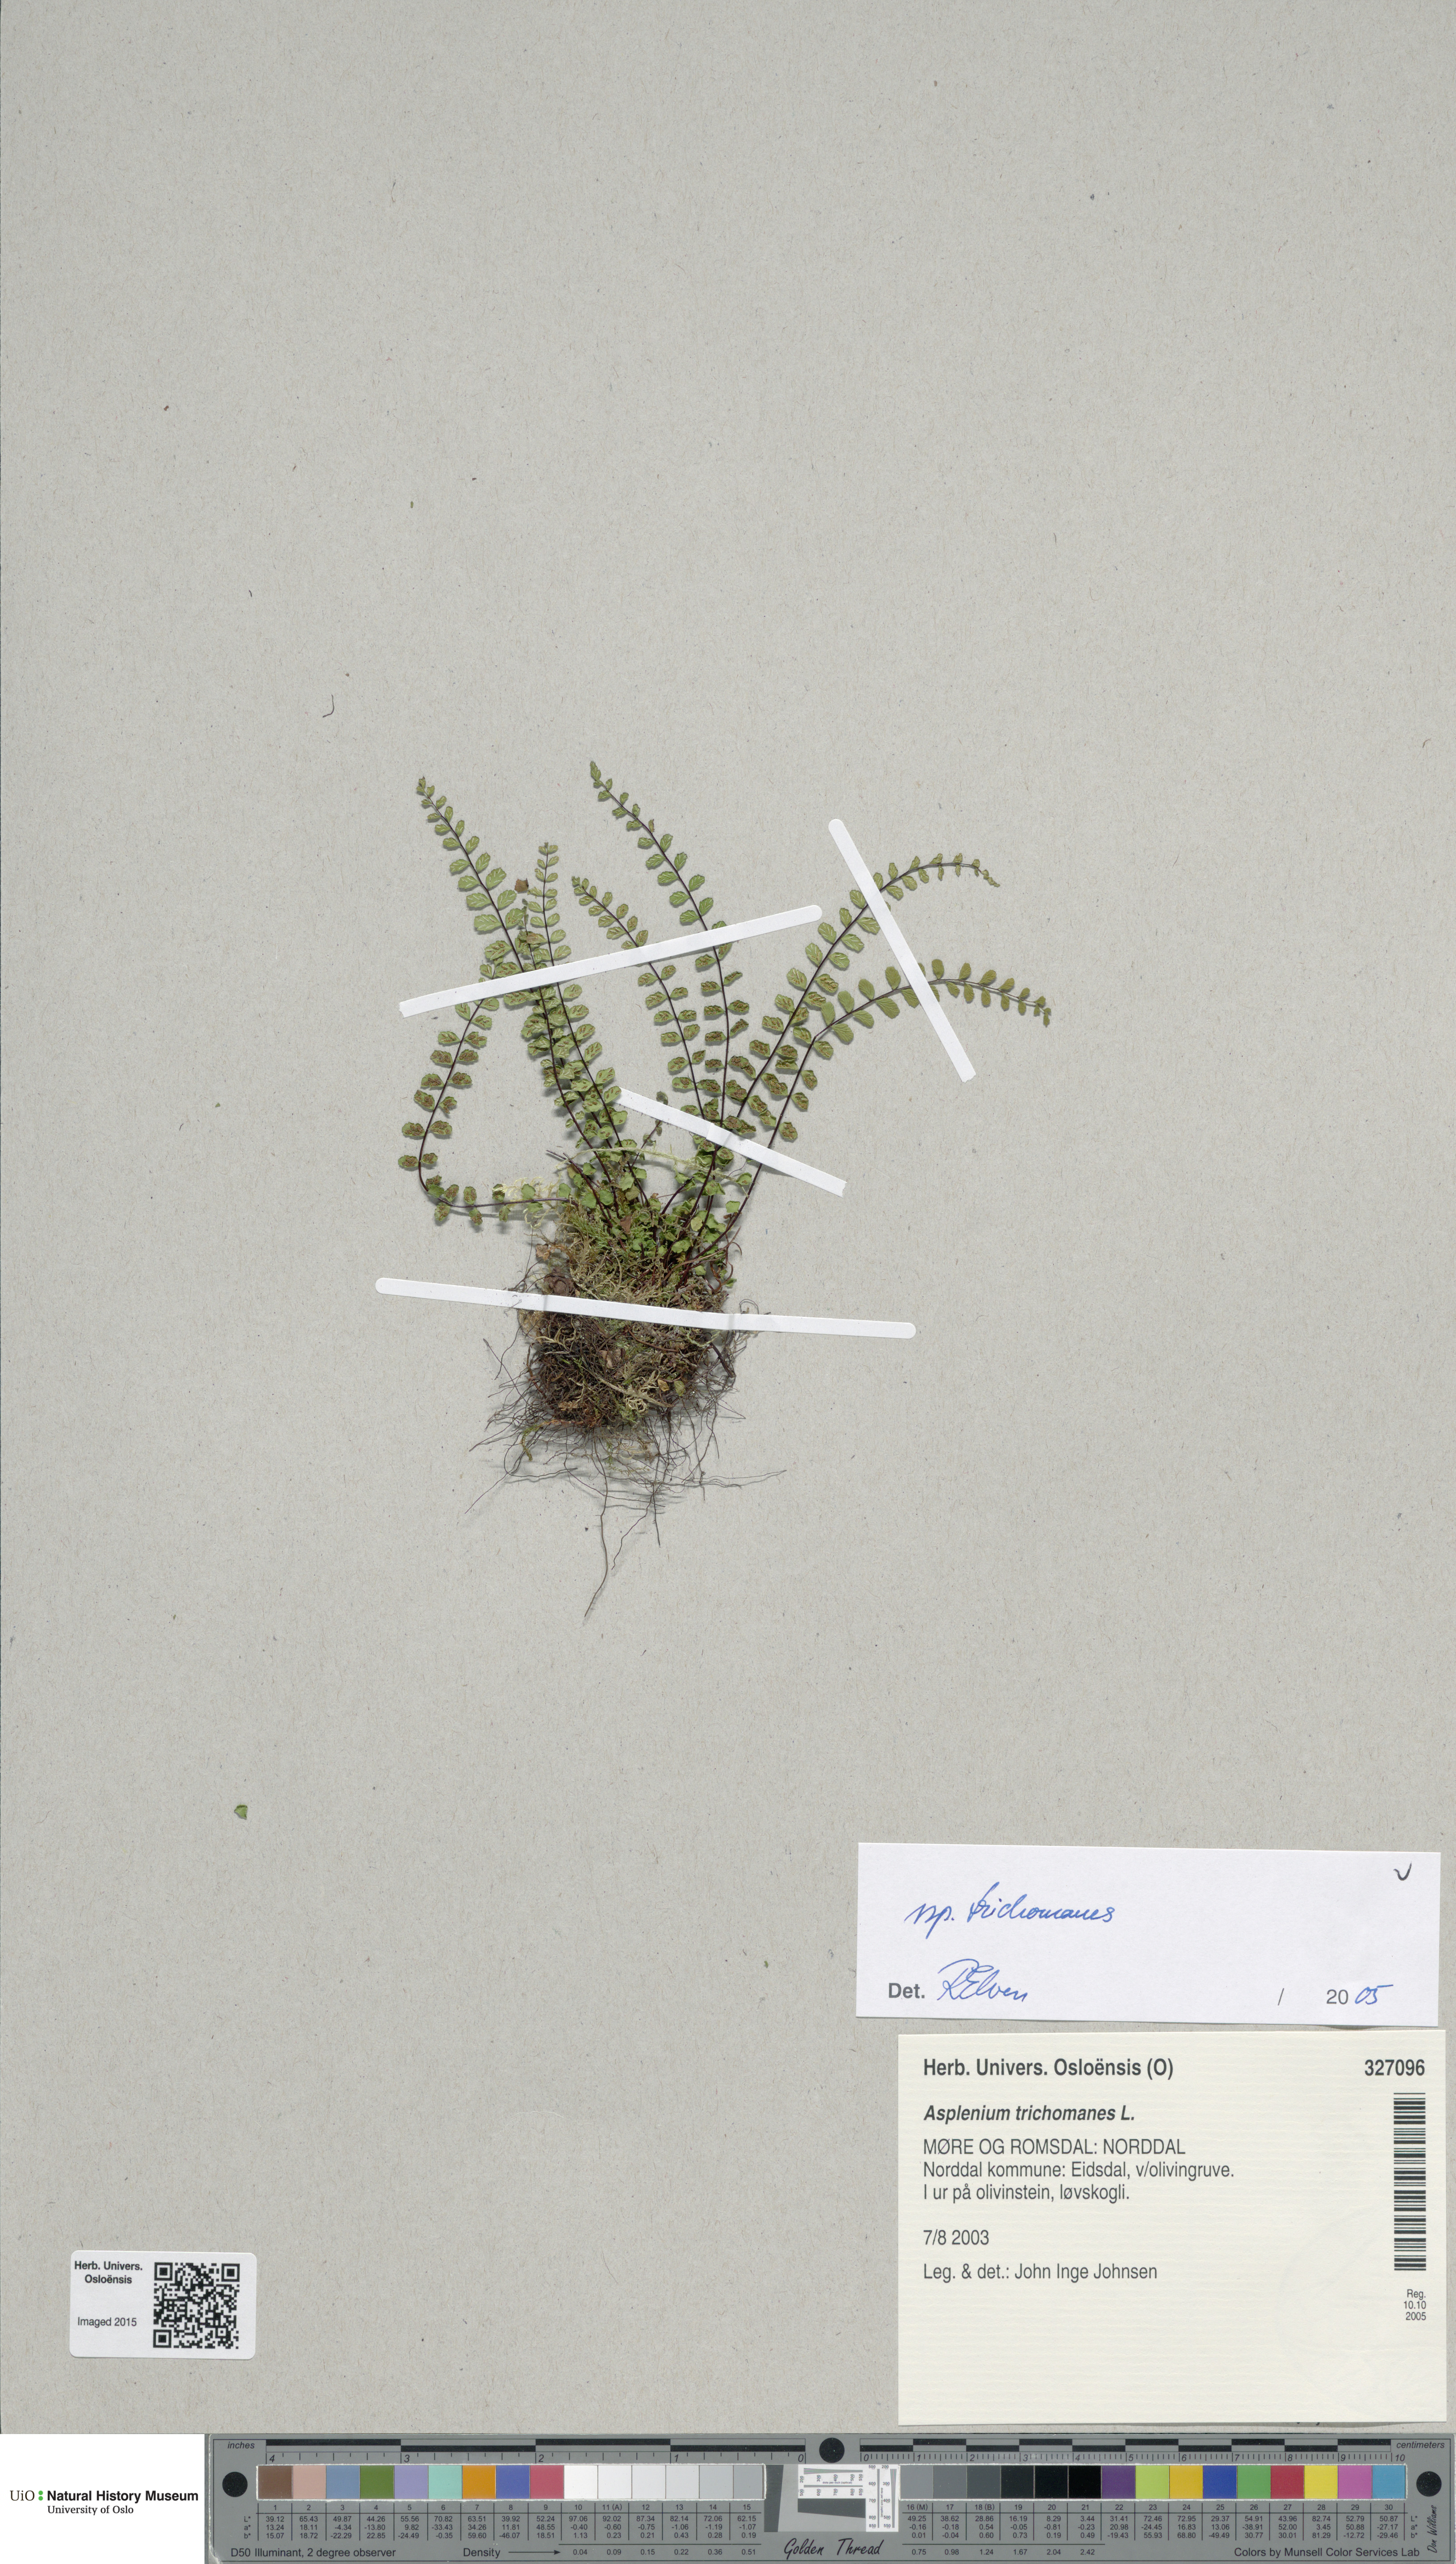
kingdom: Plantae
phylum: Tracheophyta
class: Polypodiopsida
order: Polypodiales
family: Aspleniaceae
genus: Asplenium
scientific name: Asplenium trichomanes
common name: Maidenhair spleenwort
